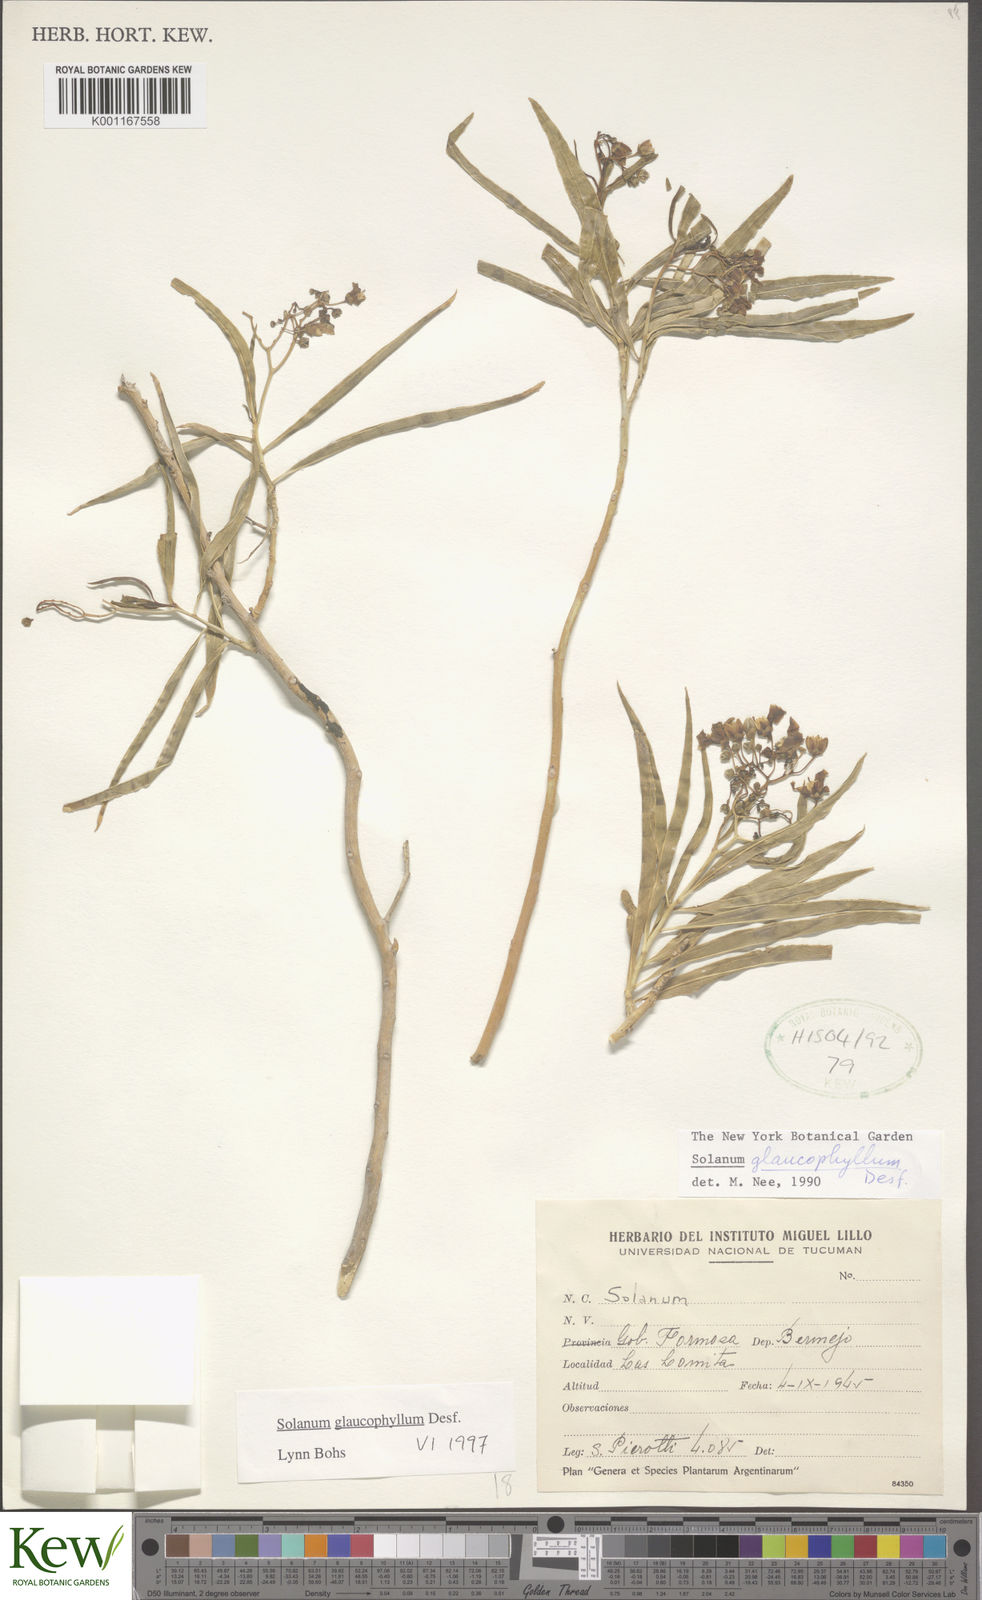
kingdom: Plantae
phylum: Tracheophyta
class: Magnoliopsida
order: Solanales
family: Solanaceae
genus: Solanum
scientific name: Solanum glaucophyllum
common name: Waxyleaf nightshade
